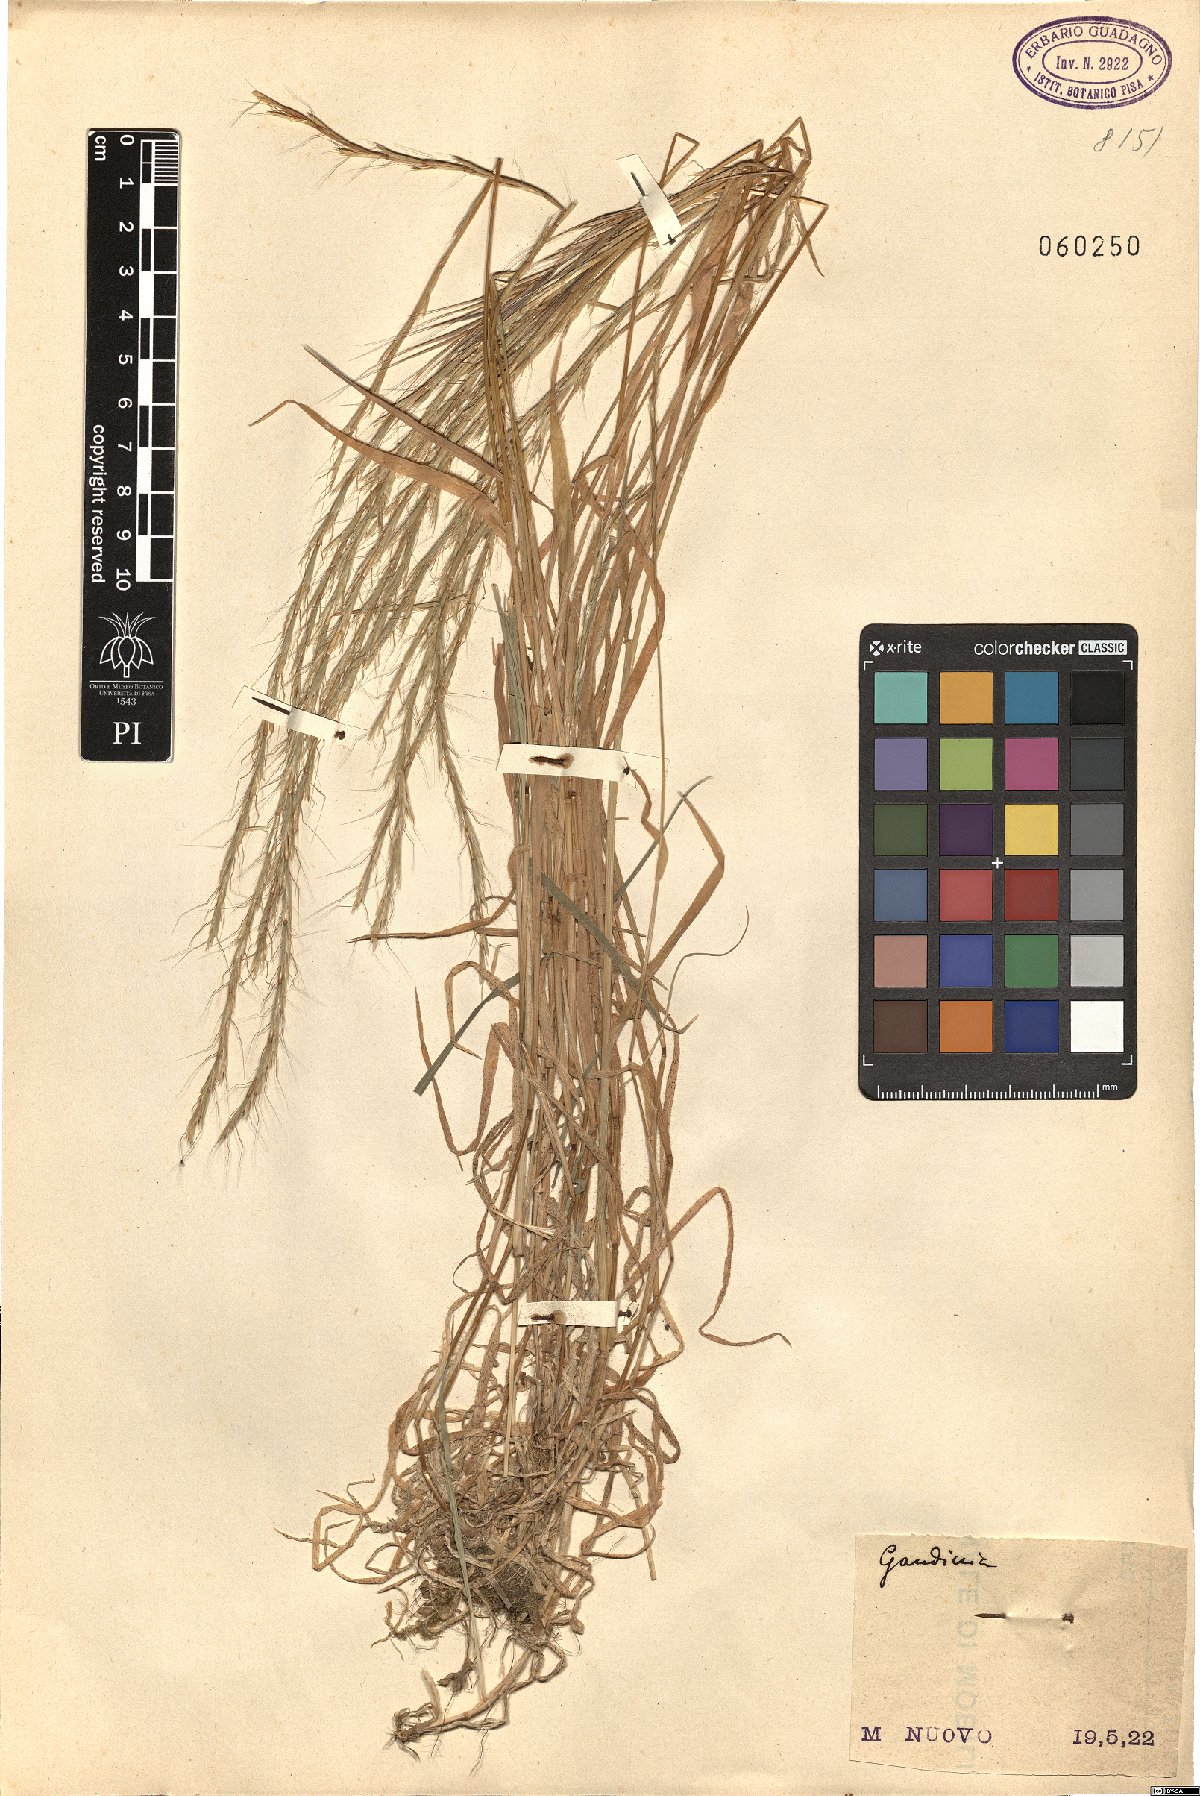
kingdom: Plantae
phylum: Tracheophyta
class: Liliopsida
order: Poales
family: Poaceae
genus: Gaudinia
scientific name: Gaudinia
